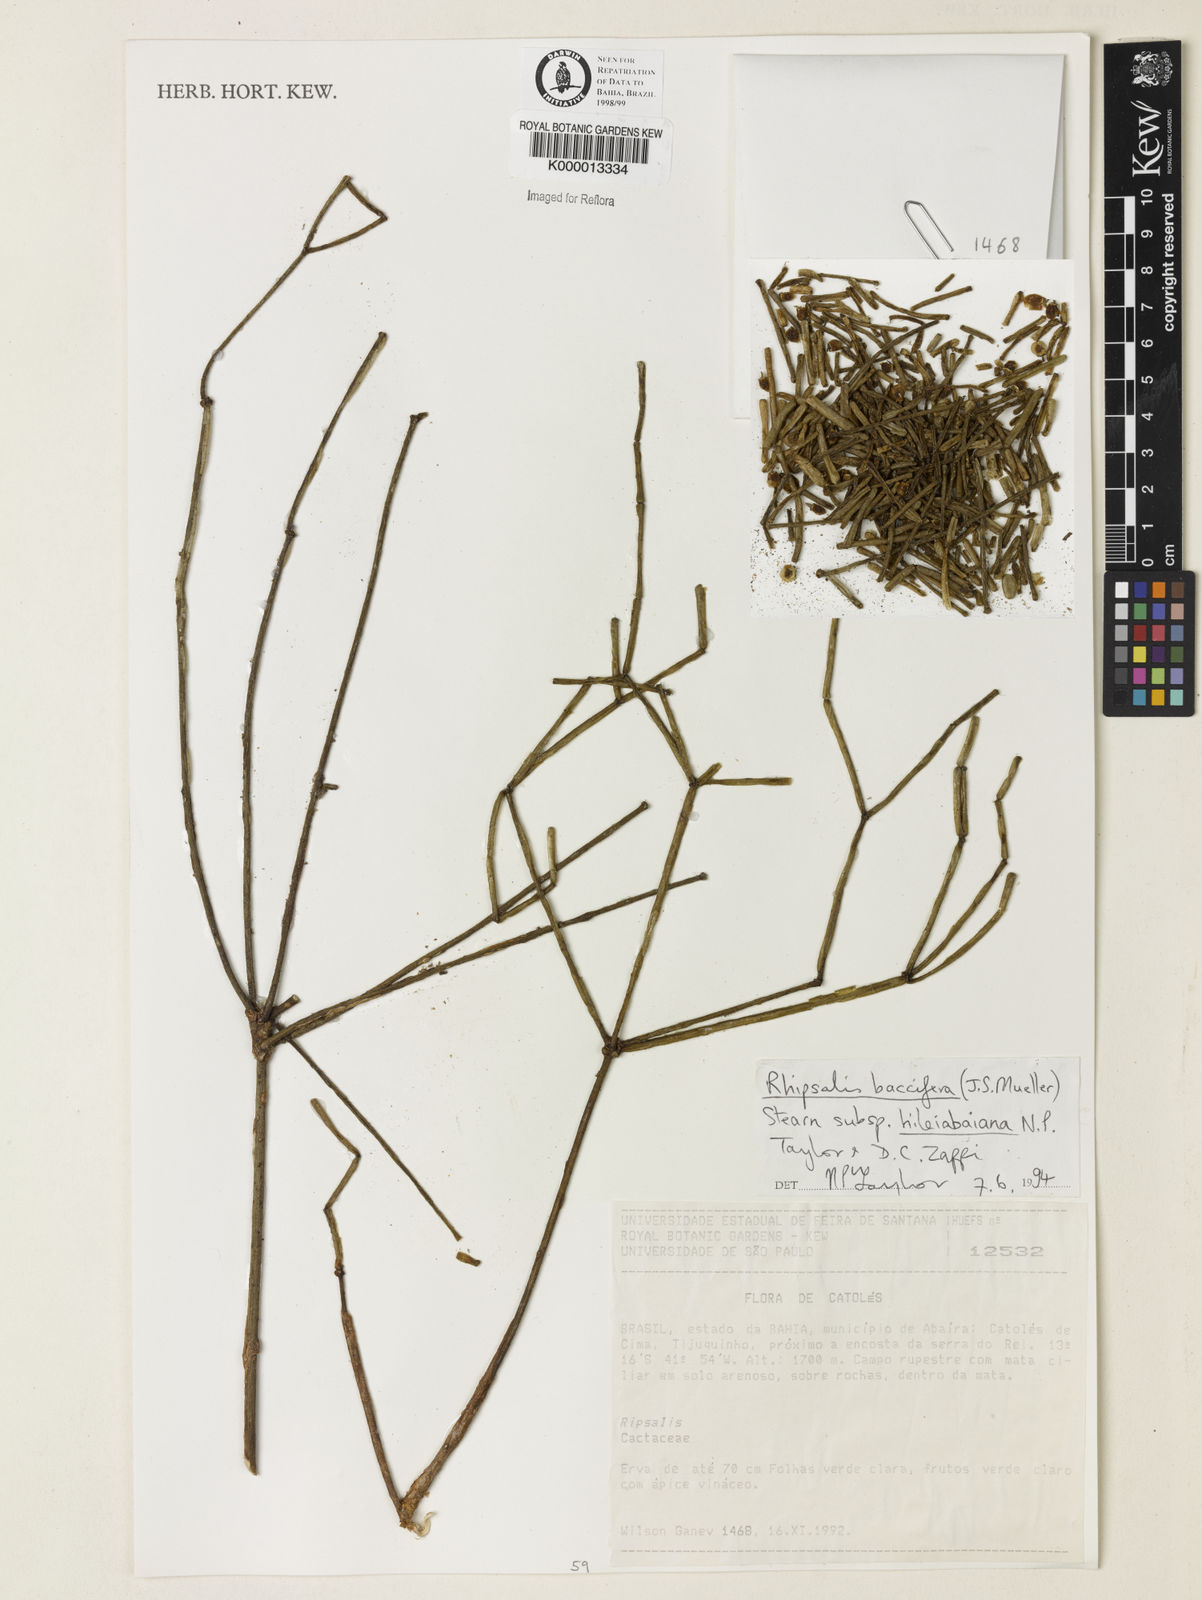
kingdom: Plantae
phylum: Tracheophyta
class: Magnoliopsida
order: Caryophyllales
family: Cactaceae
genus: Rhipsalis
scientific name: Rhipsalis hileiabaiana
